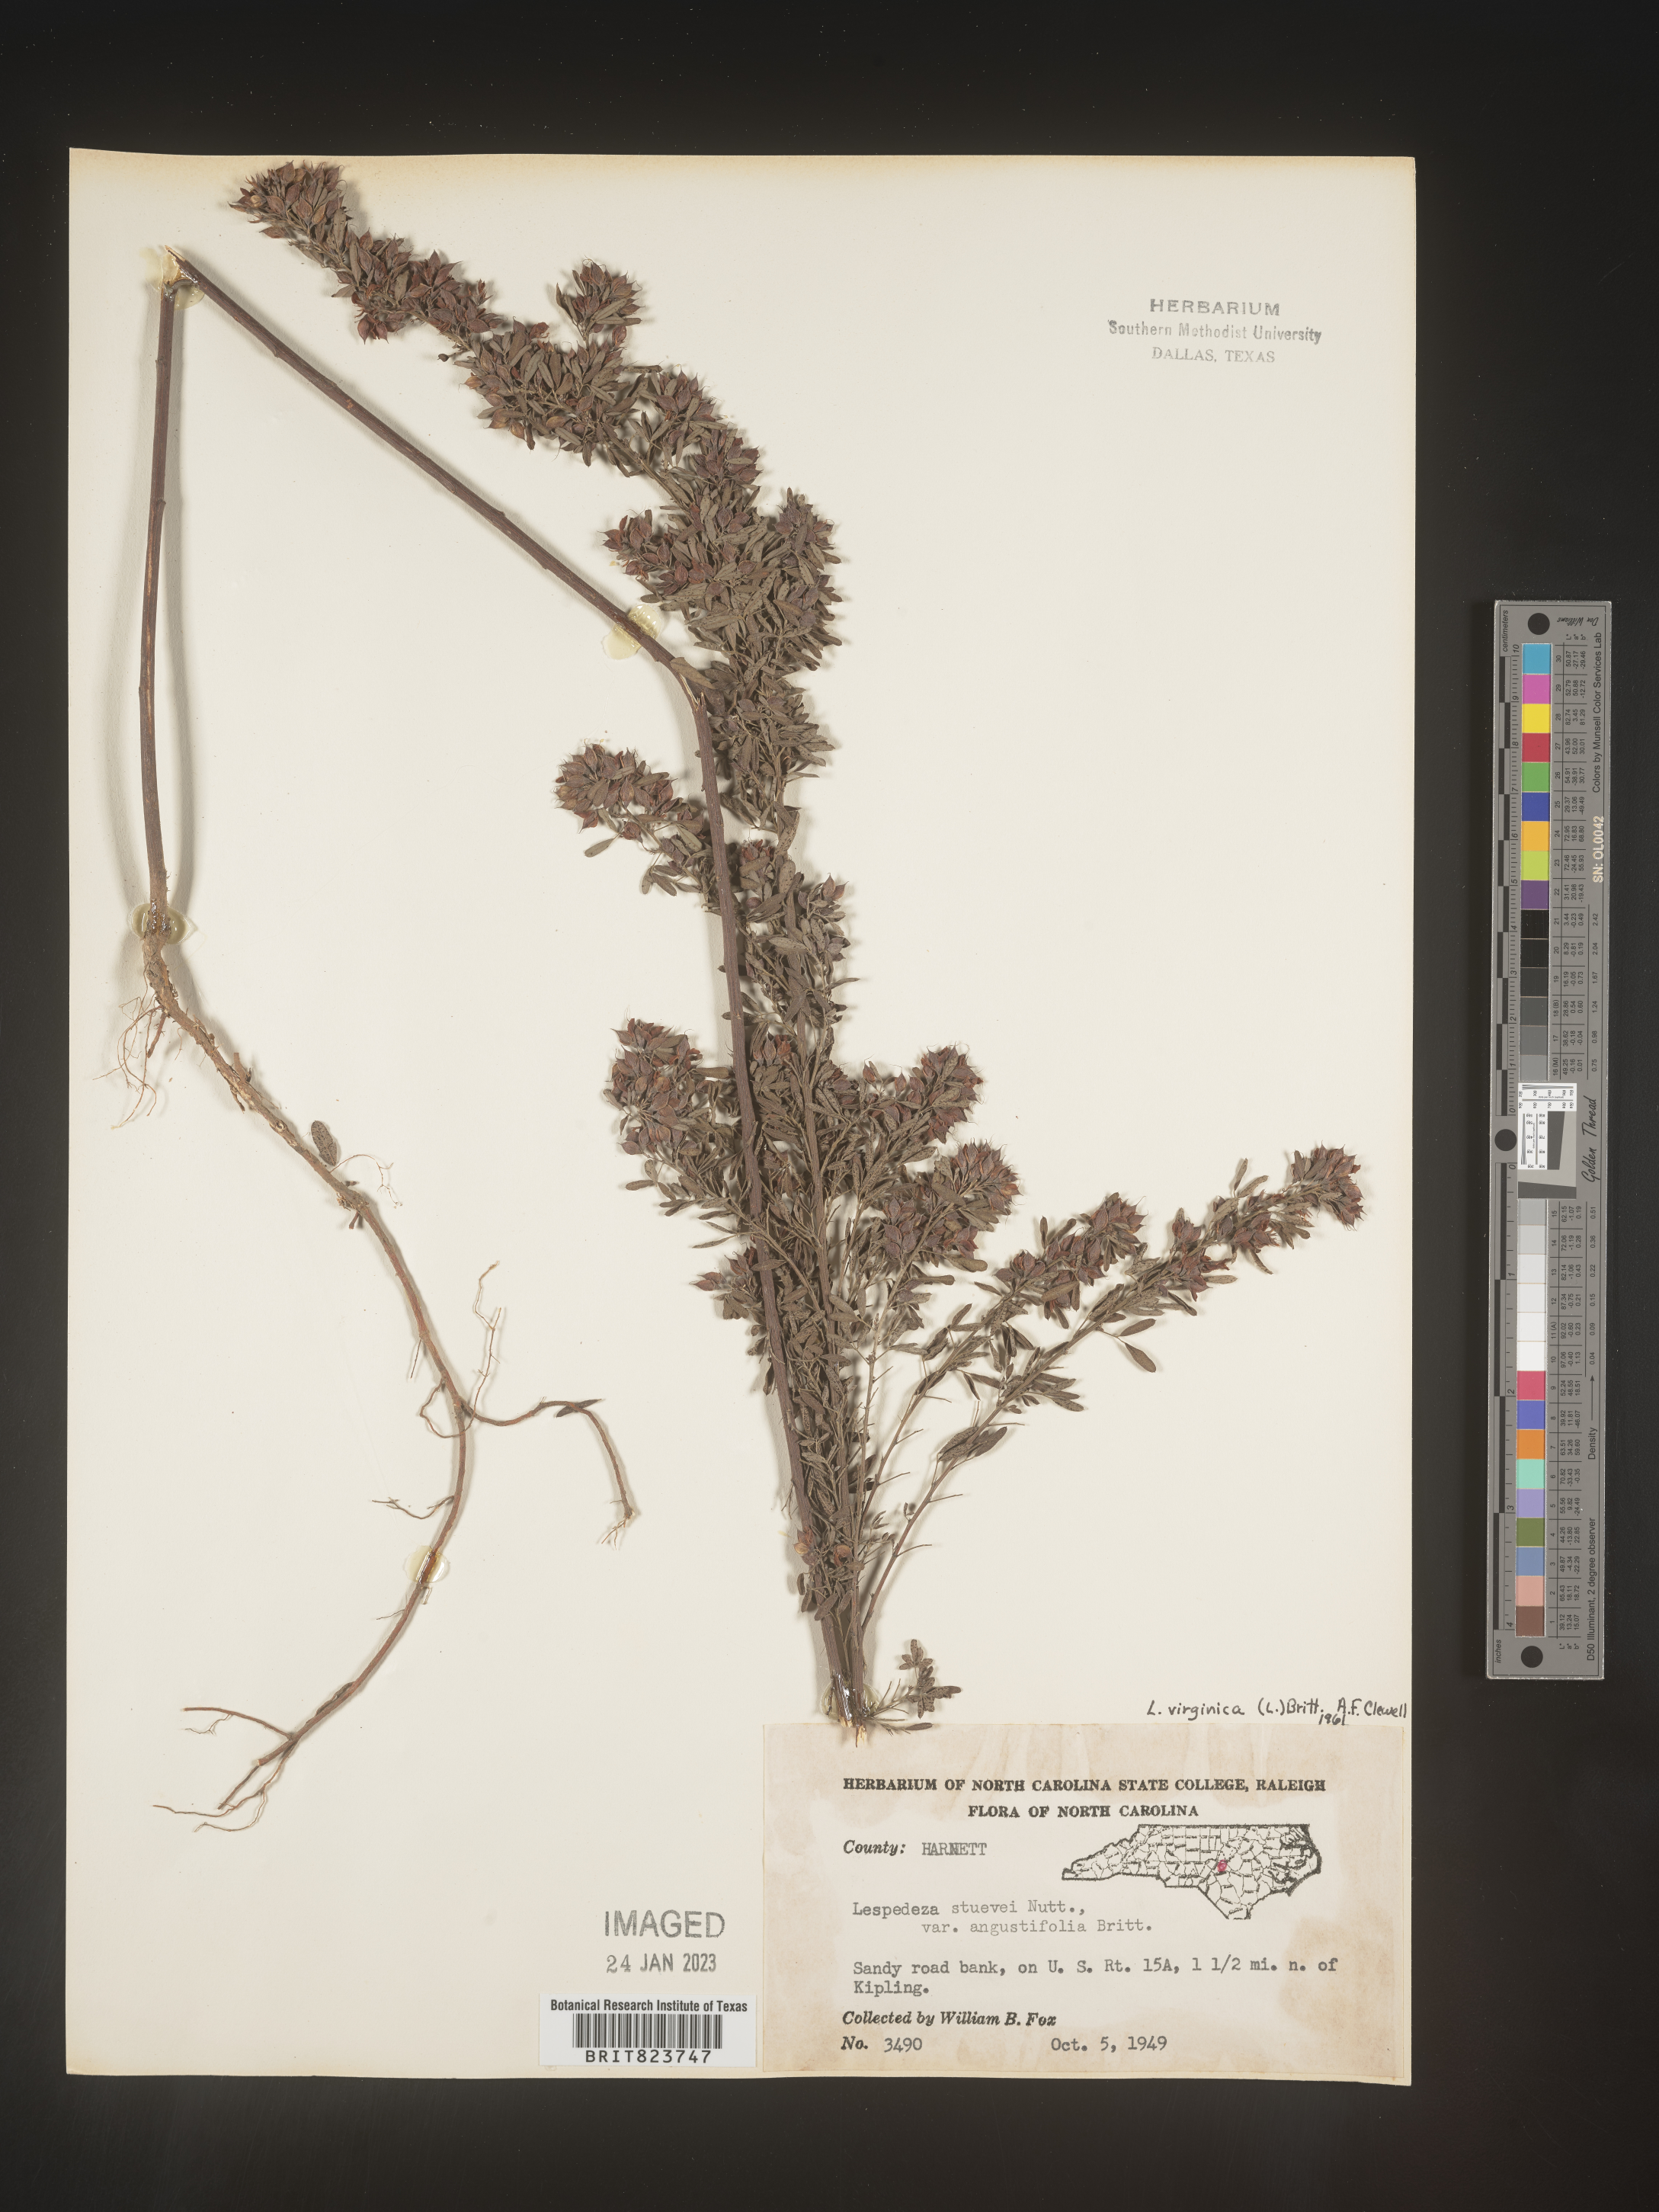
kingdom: Plantae
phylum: Tracheophyta
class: Magnoliopsida
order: Fabales
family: Fabaceae
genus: Lespedeza
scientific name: Lespedeza virginica
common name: Slender bush-clover
